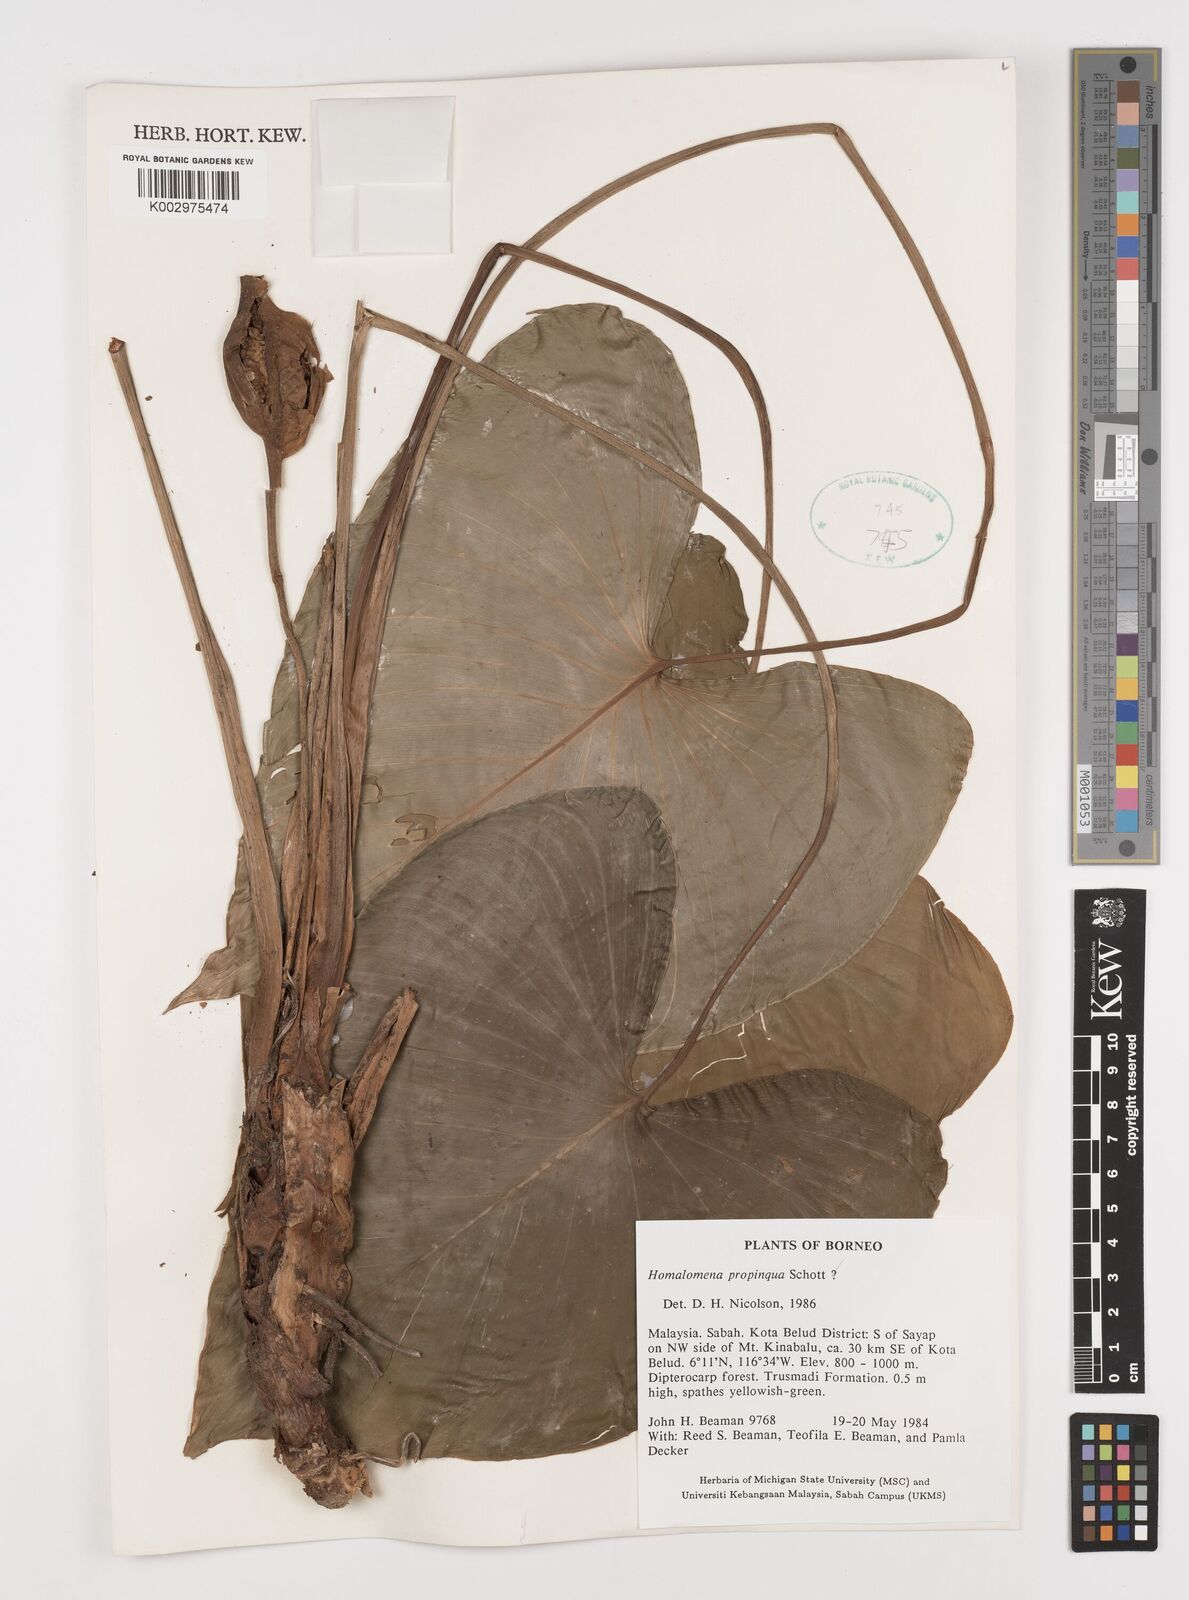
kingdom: Plantae
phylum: Tracheophyta
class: Liliopsida
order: Alismatales
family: Araceae
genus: Homalomena
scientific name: Homalomena humilis
